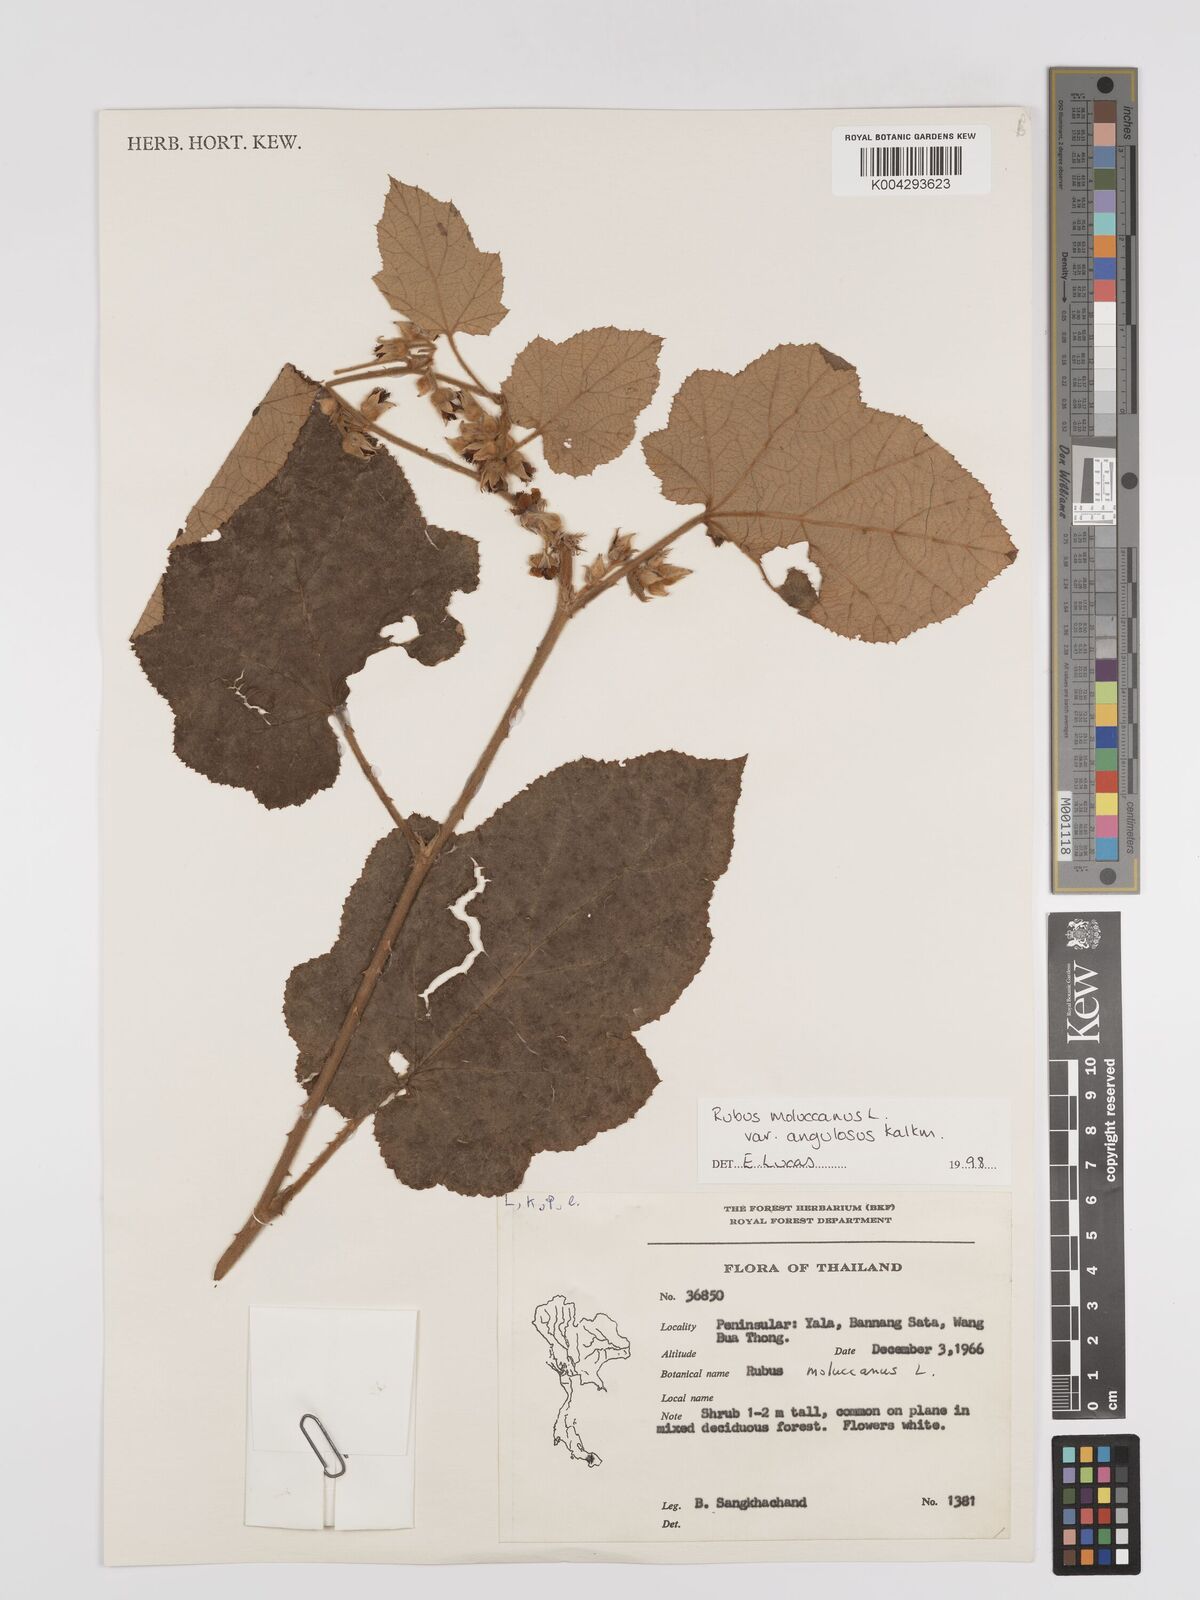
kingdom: Plantae
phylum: Tracheophyta
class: Magnoliopsida
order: Rosales
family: Rosaceae
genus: Rubus
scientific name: Rubus moluccanus
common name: Wild raspberry
